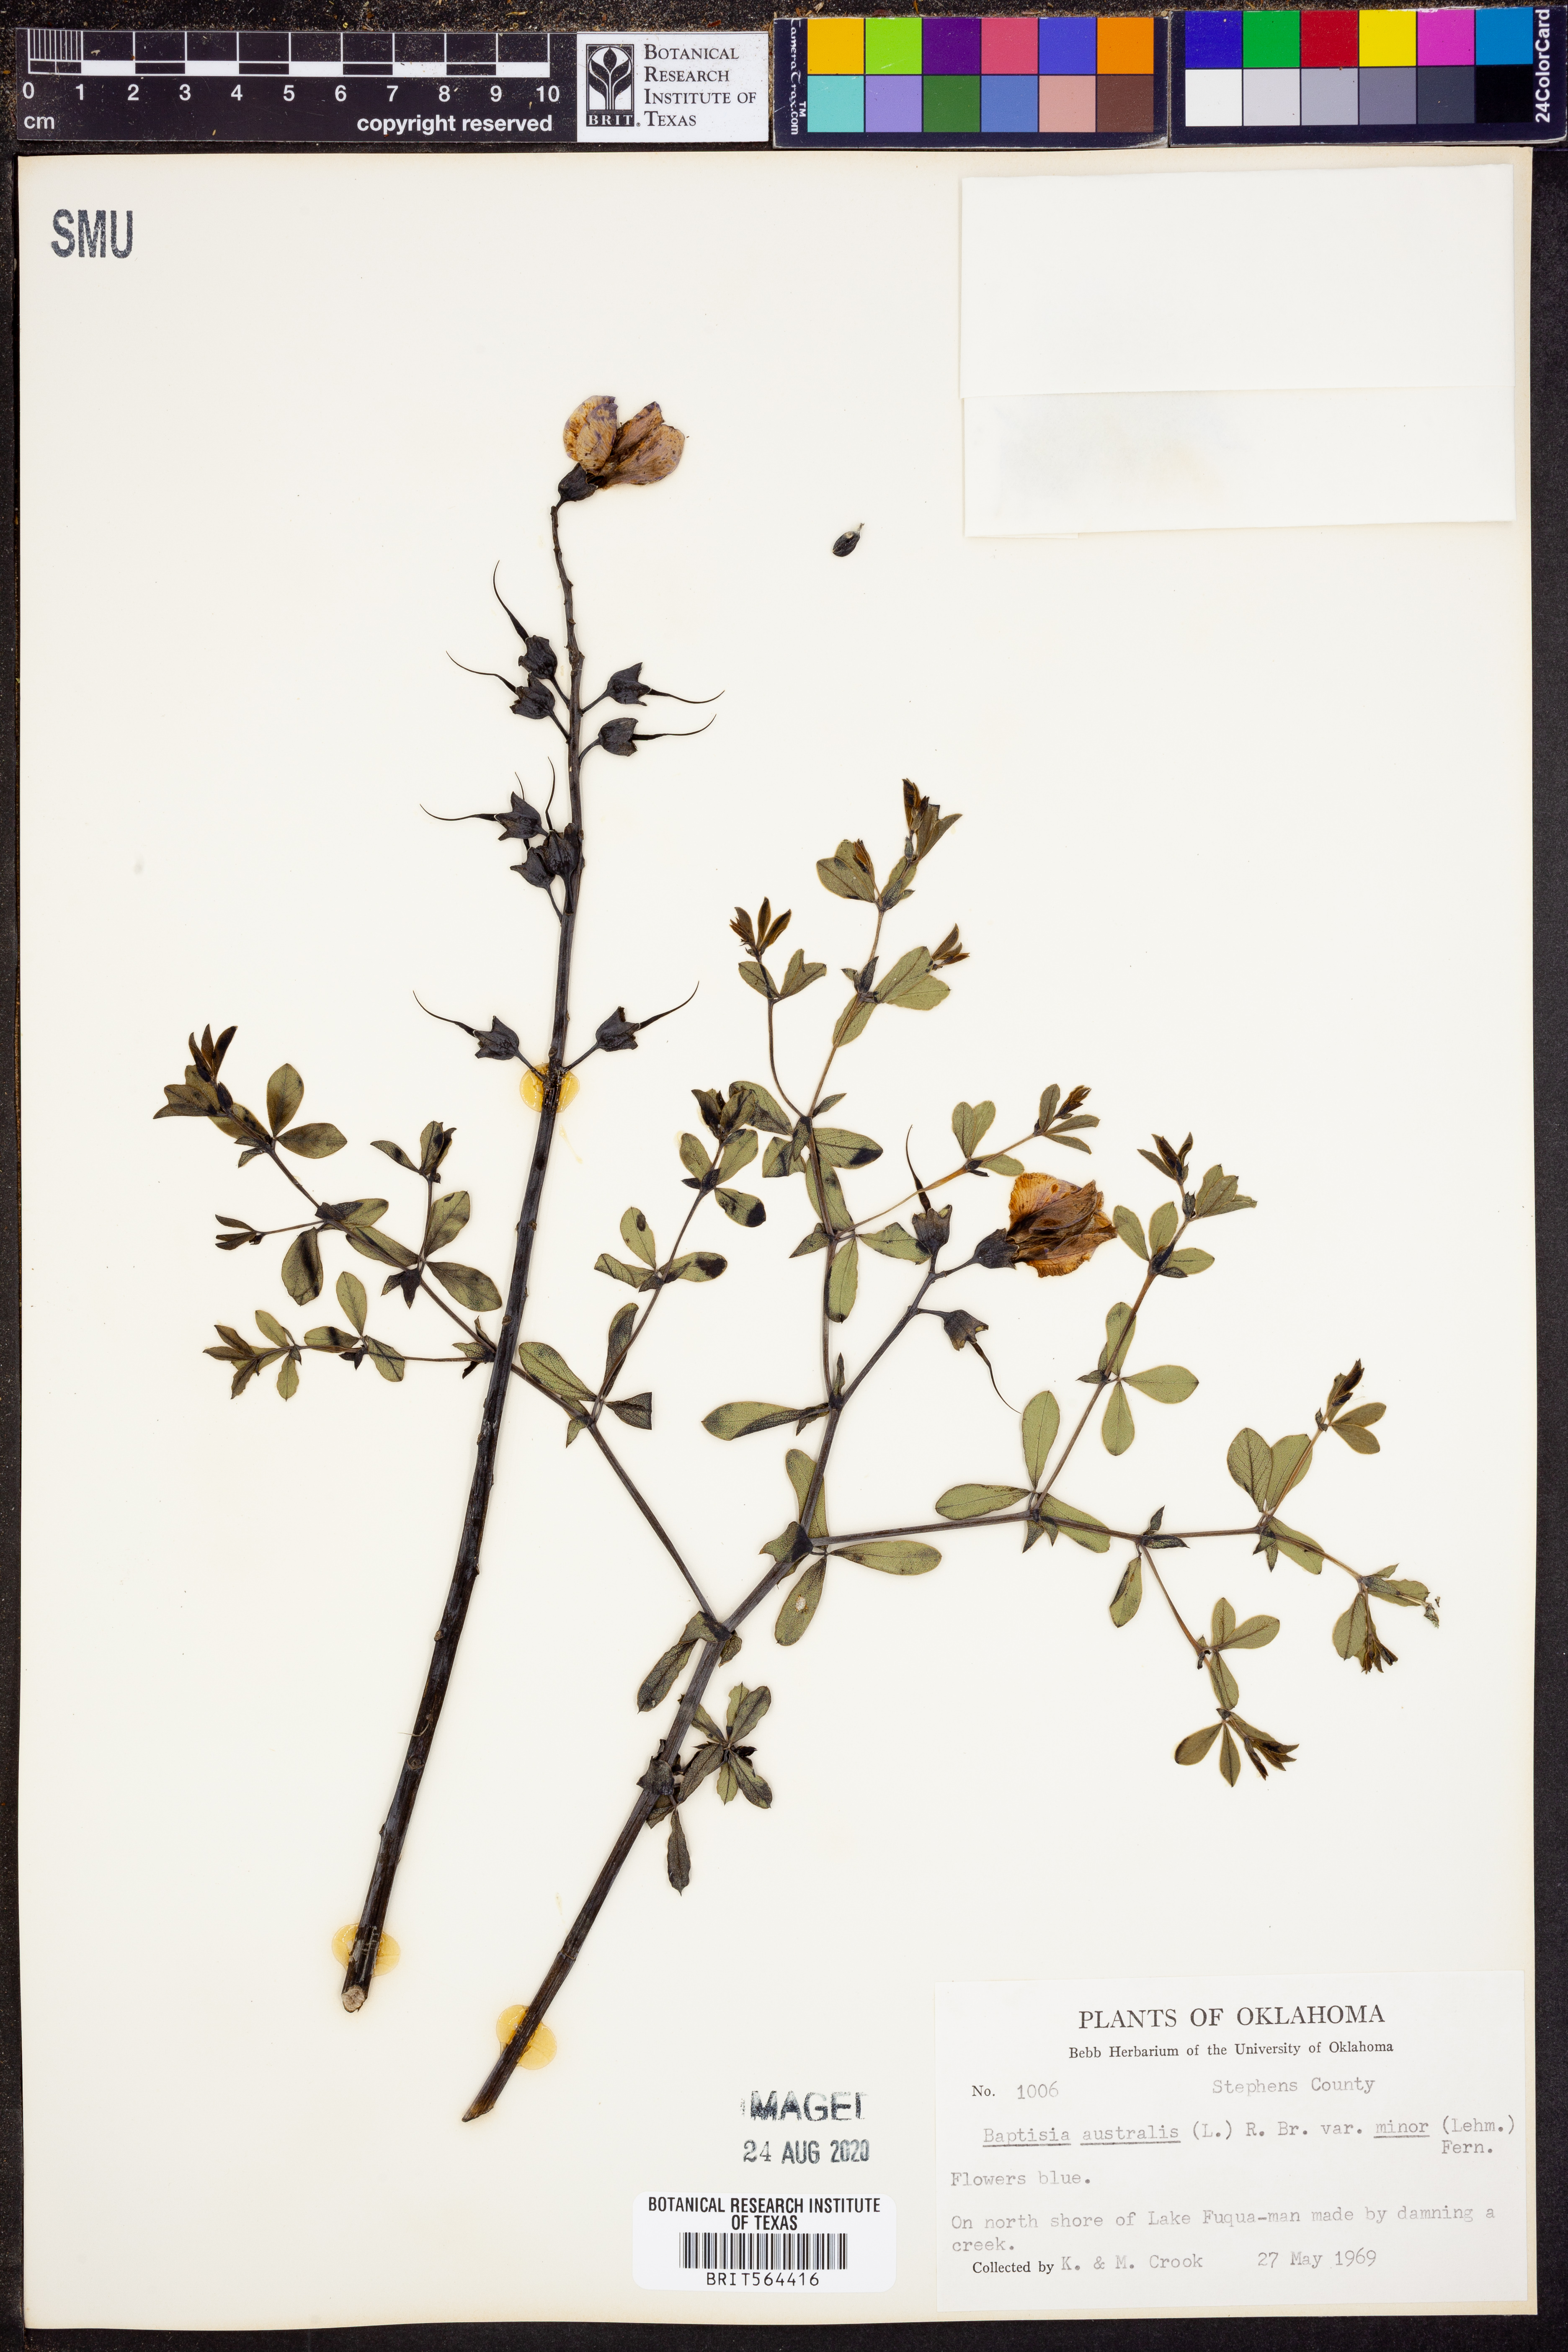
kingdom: Plantae
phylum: Tracheophyta
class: Magnoliopsida
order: Fabales
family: Fabaceae
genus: Baptisia
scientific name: Baptisia australis
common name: Blue false indigo
